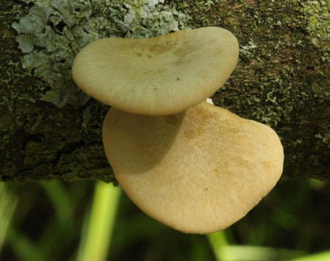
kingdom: Fungi
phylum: Basidiomycota
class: Agaricomycetes
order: Polyporales
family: Polyporaceae
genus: Cerioporus
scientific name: Cerioporus varius
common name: foranderlig stilkporesvamp
